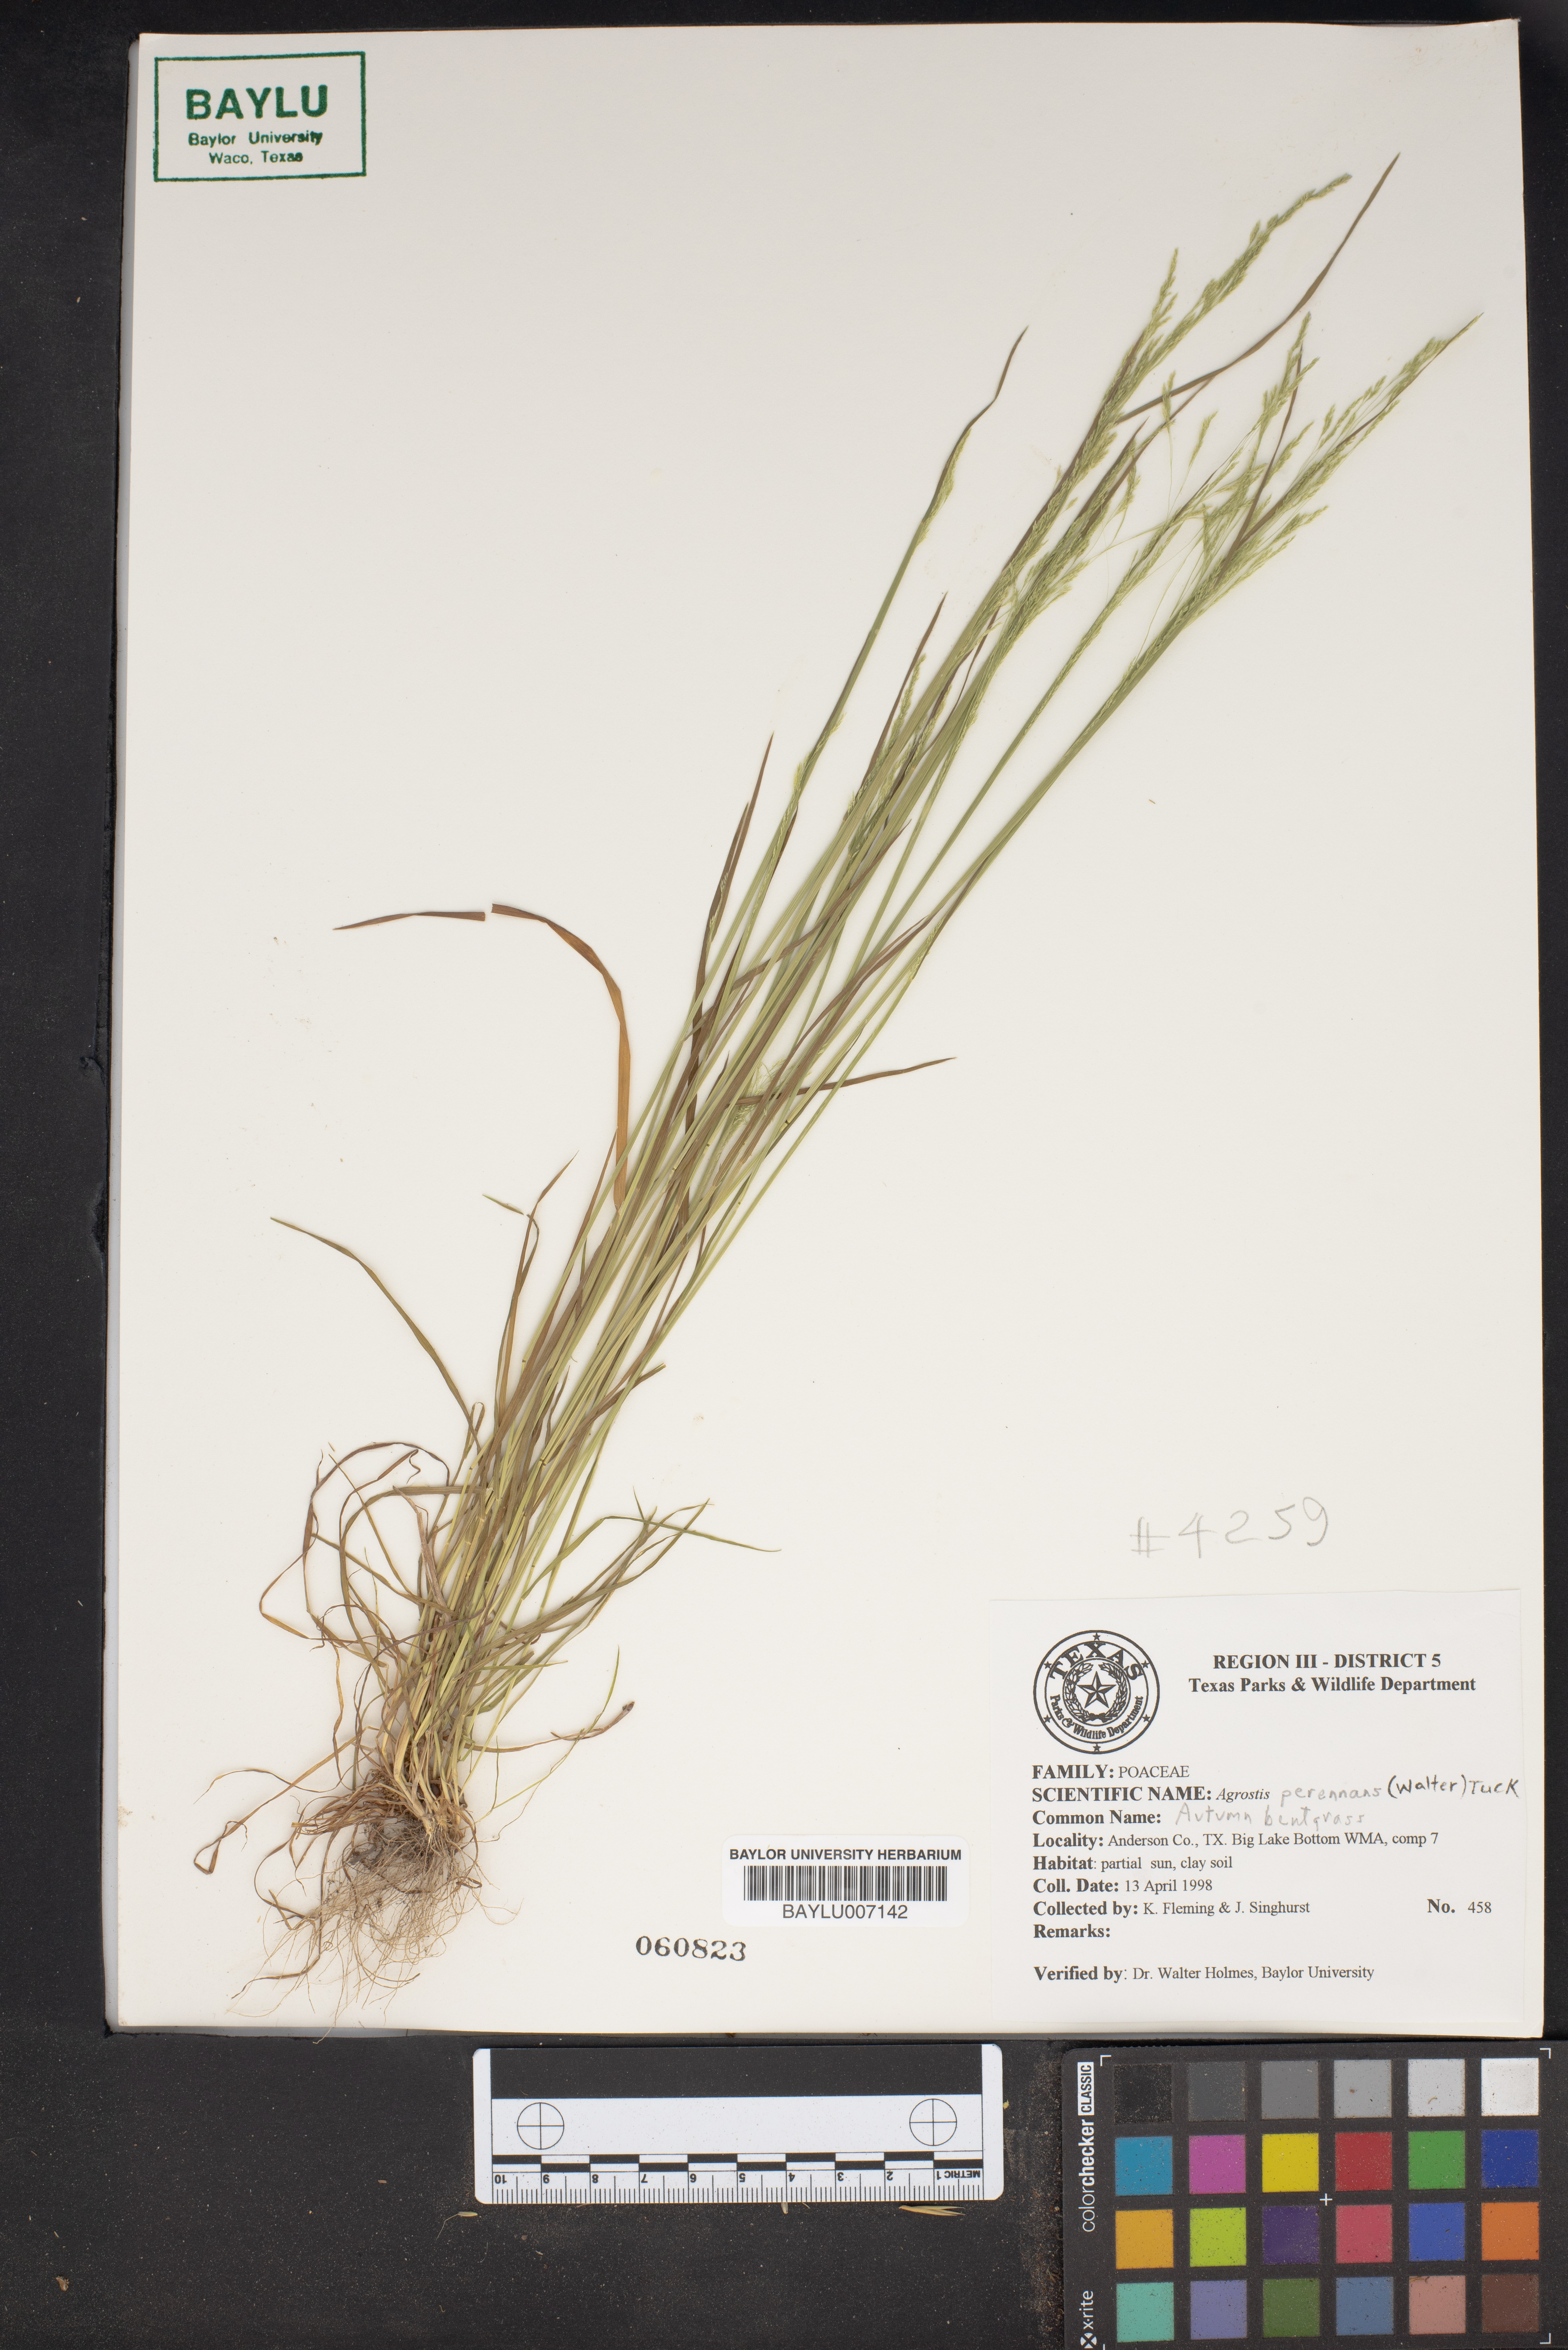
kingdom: Plantae
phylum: Tracheophyta
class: Liliopsida
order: Poales
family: Poaceae
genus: Agrostis
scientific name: Agrostis perennans
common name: Autumn bent
